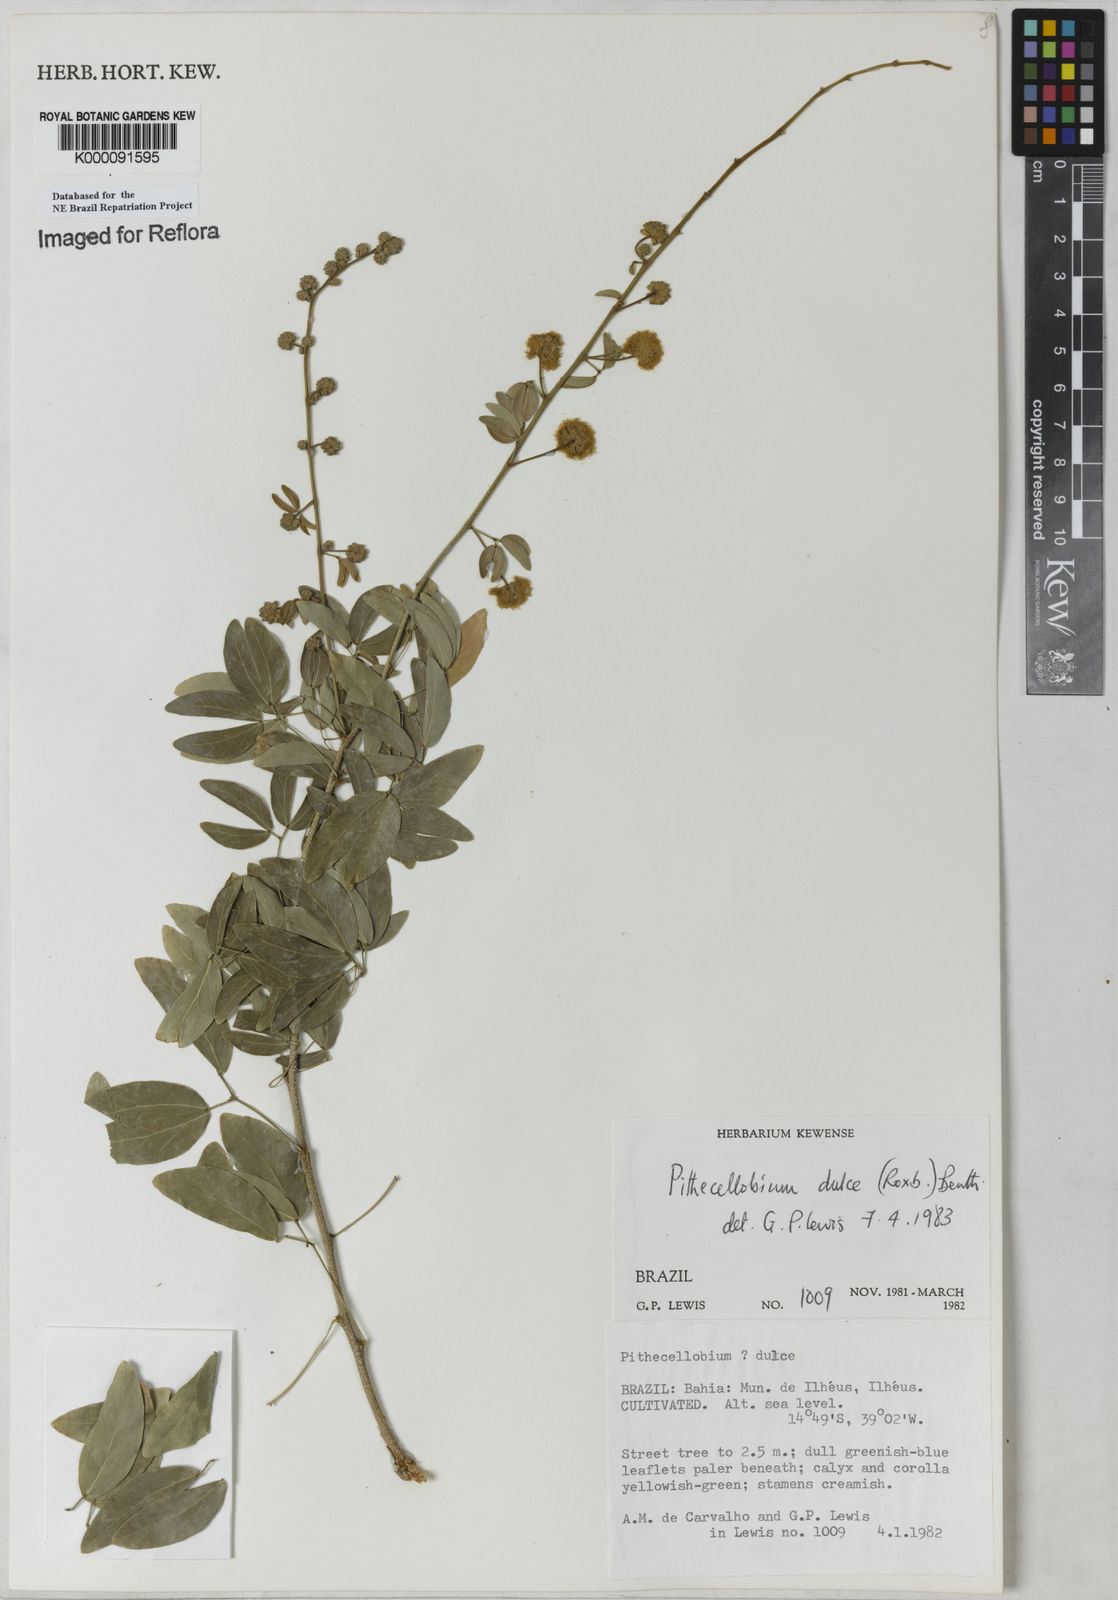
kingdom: Plantae
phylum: Tracheophyta
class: Magnoliopsida
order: Fabales
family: Fabaceae
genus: Pithecellobium
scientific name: Pithecellobium dulce
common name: Monkeypod
